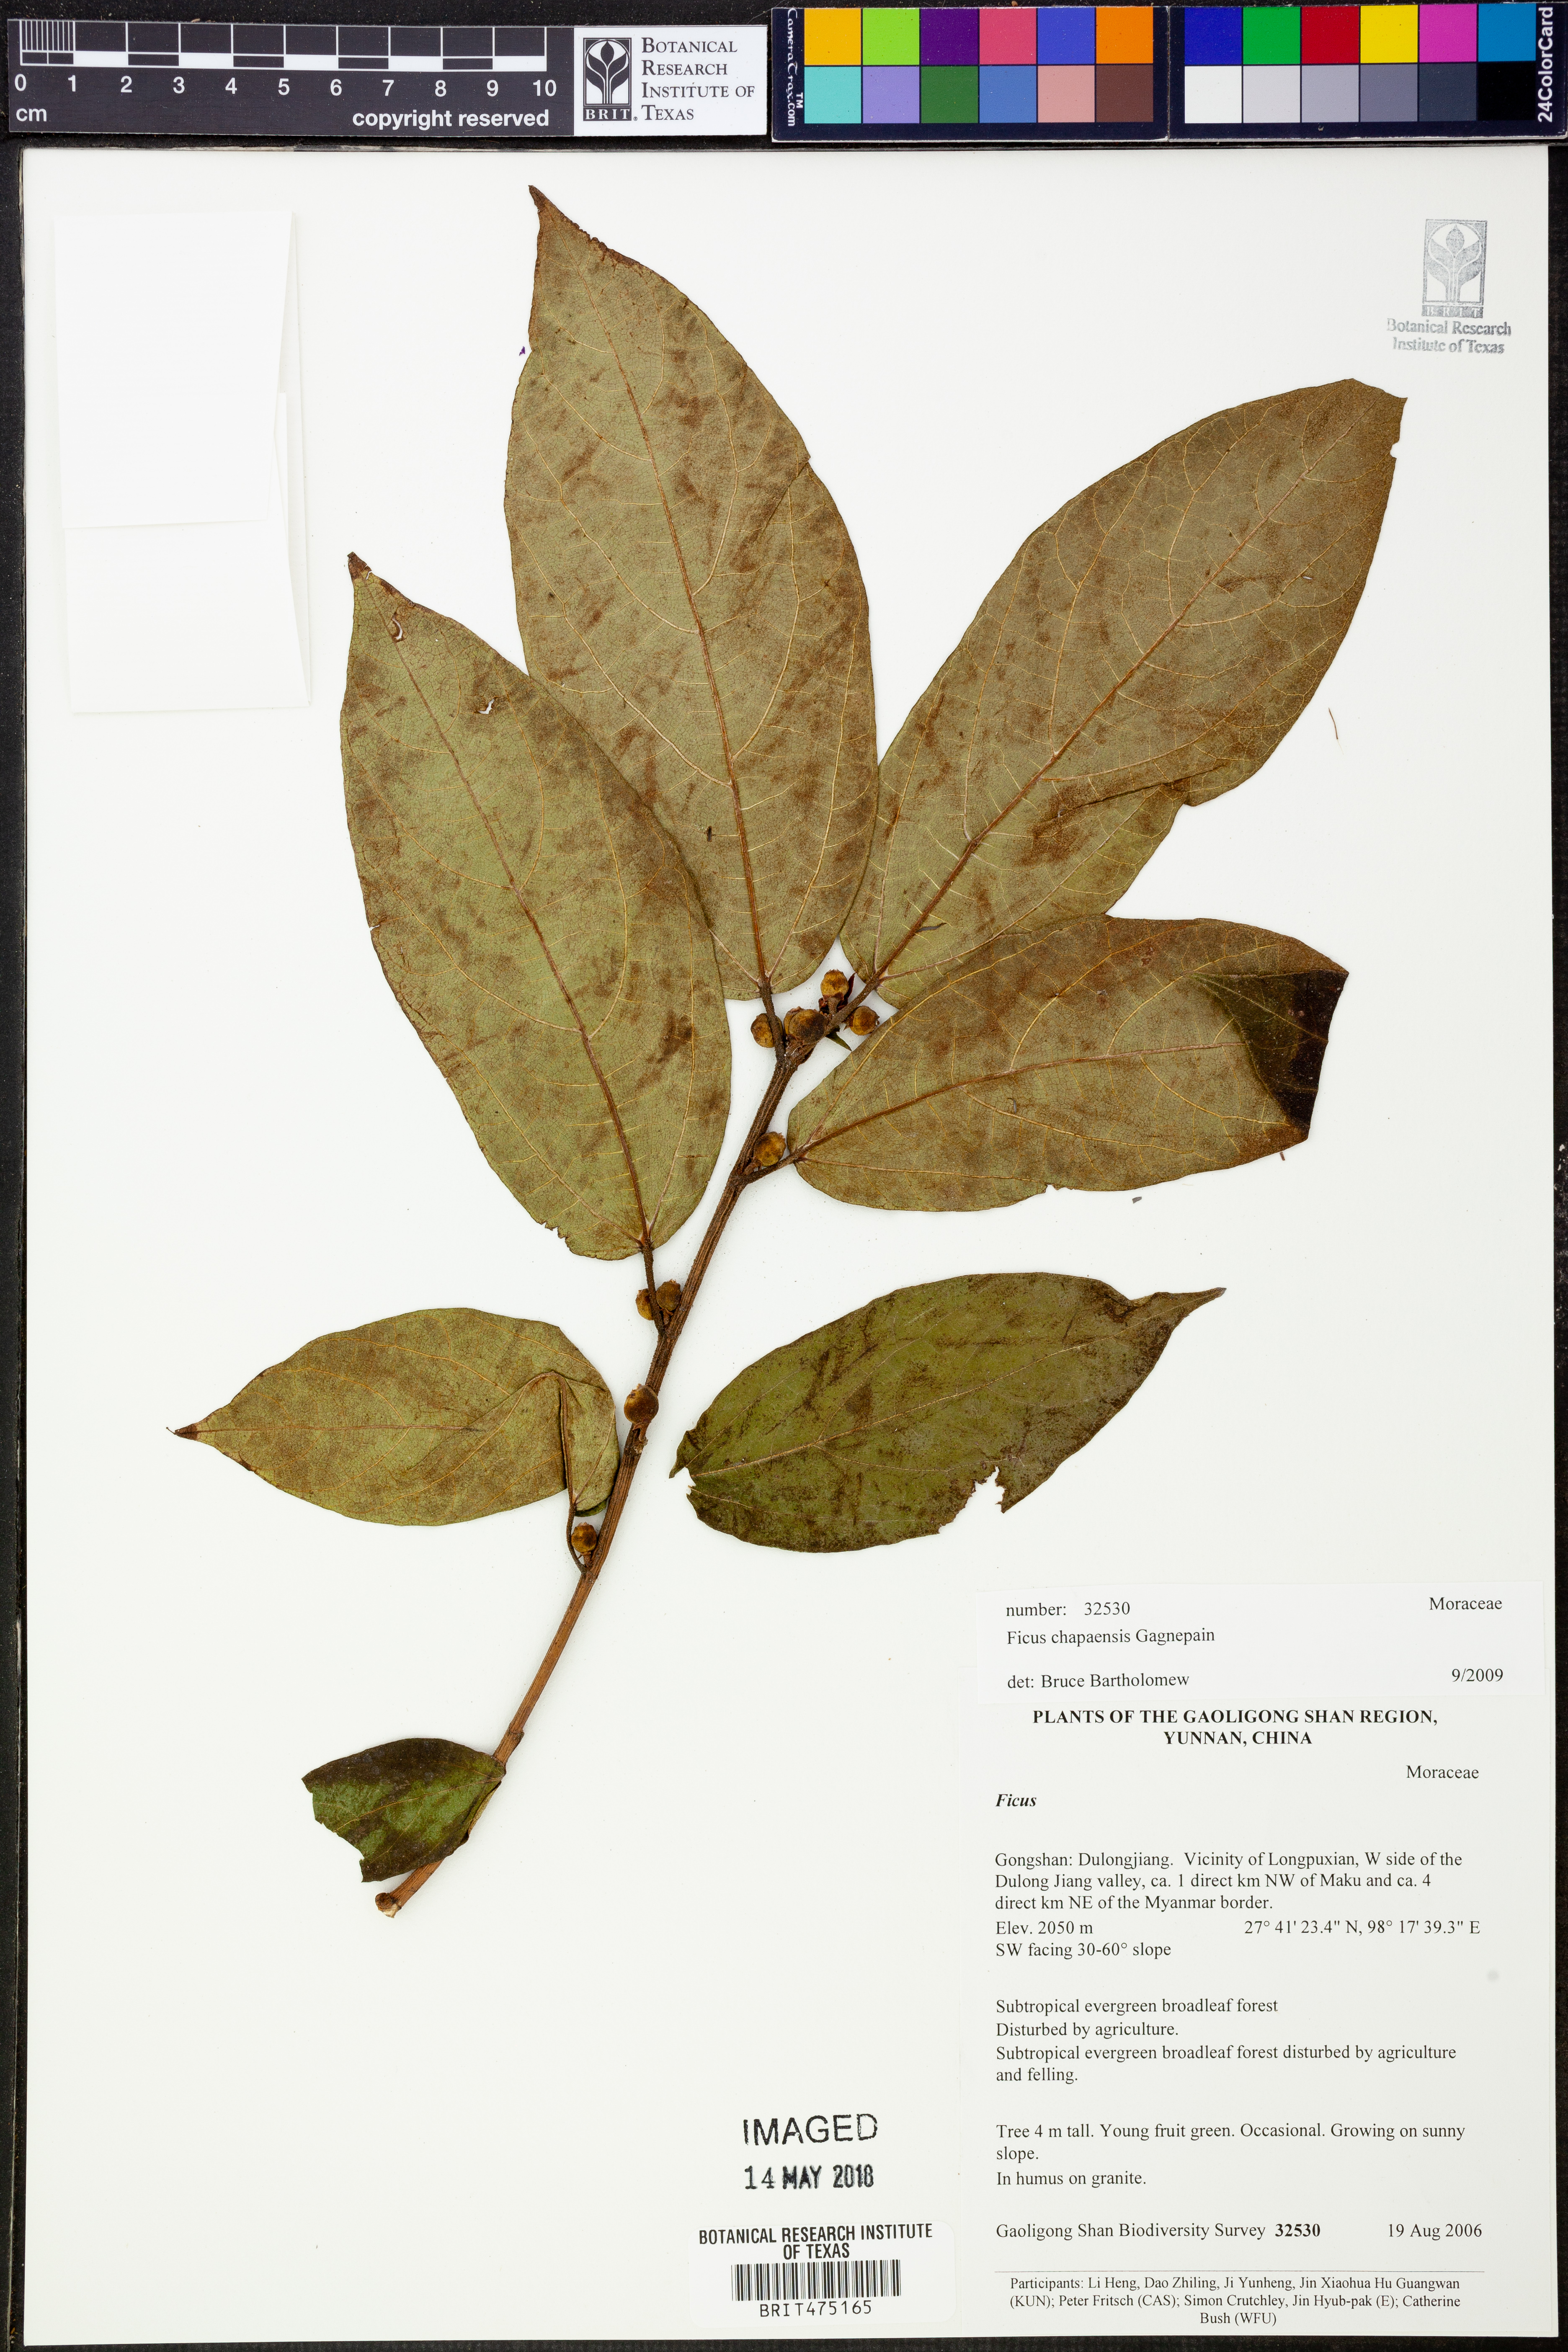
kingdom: Plantae
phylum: Tracheophyta
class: Magnoliopsida
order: Rosales
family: Moraceae
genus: Ficus
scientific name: Ficus chapaensis
